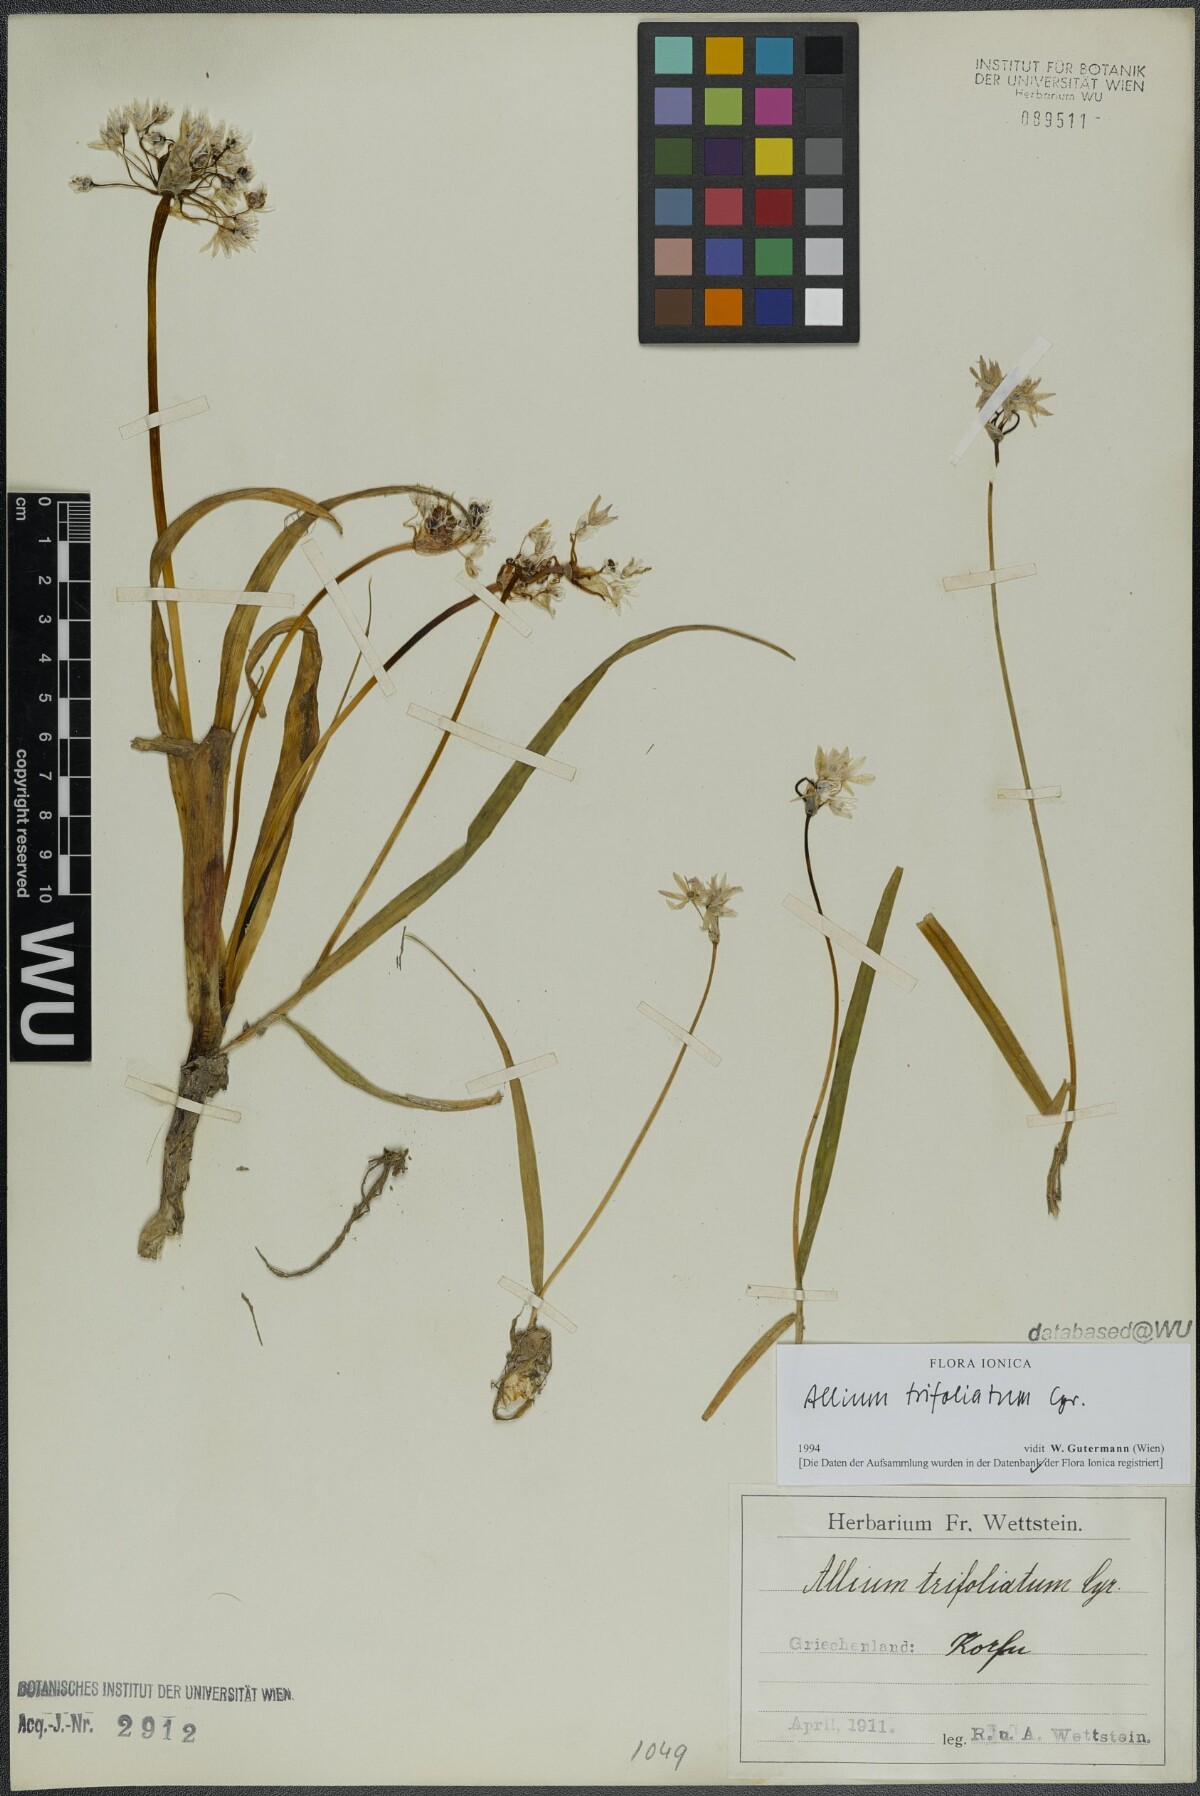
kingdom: Plantae
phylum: Tracheophyta
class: Liliopsida
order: Asparagales
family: Amaryllidaceae
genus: Allium
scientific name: Allium trifoliatum
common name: Pink garlic
